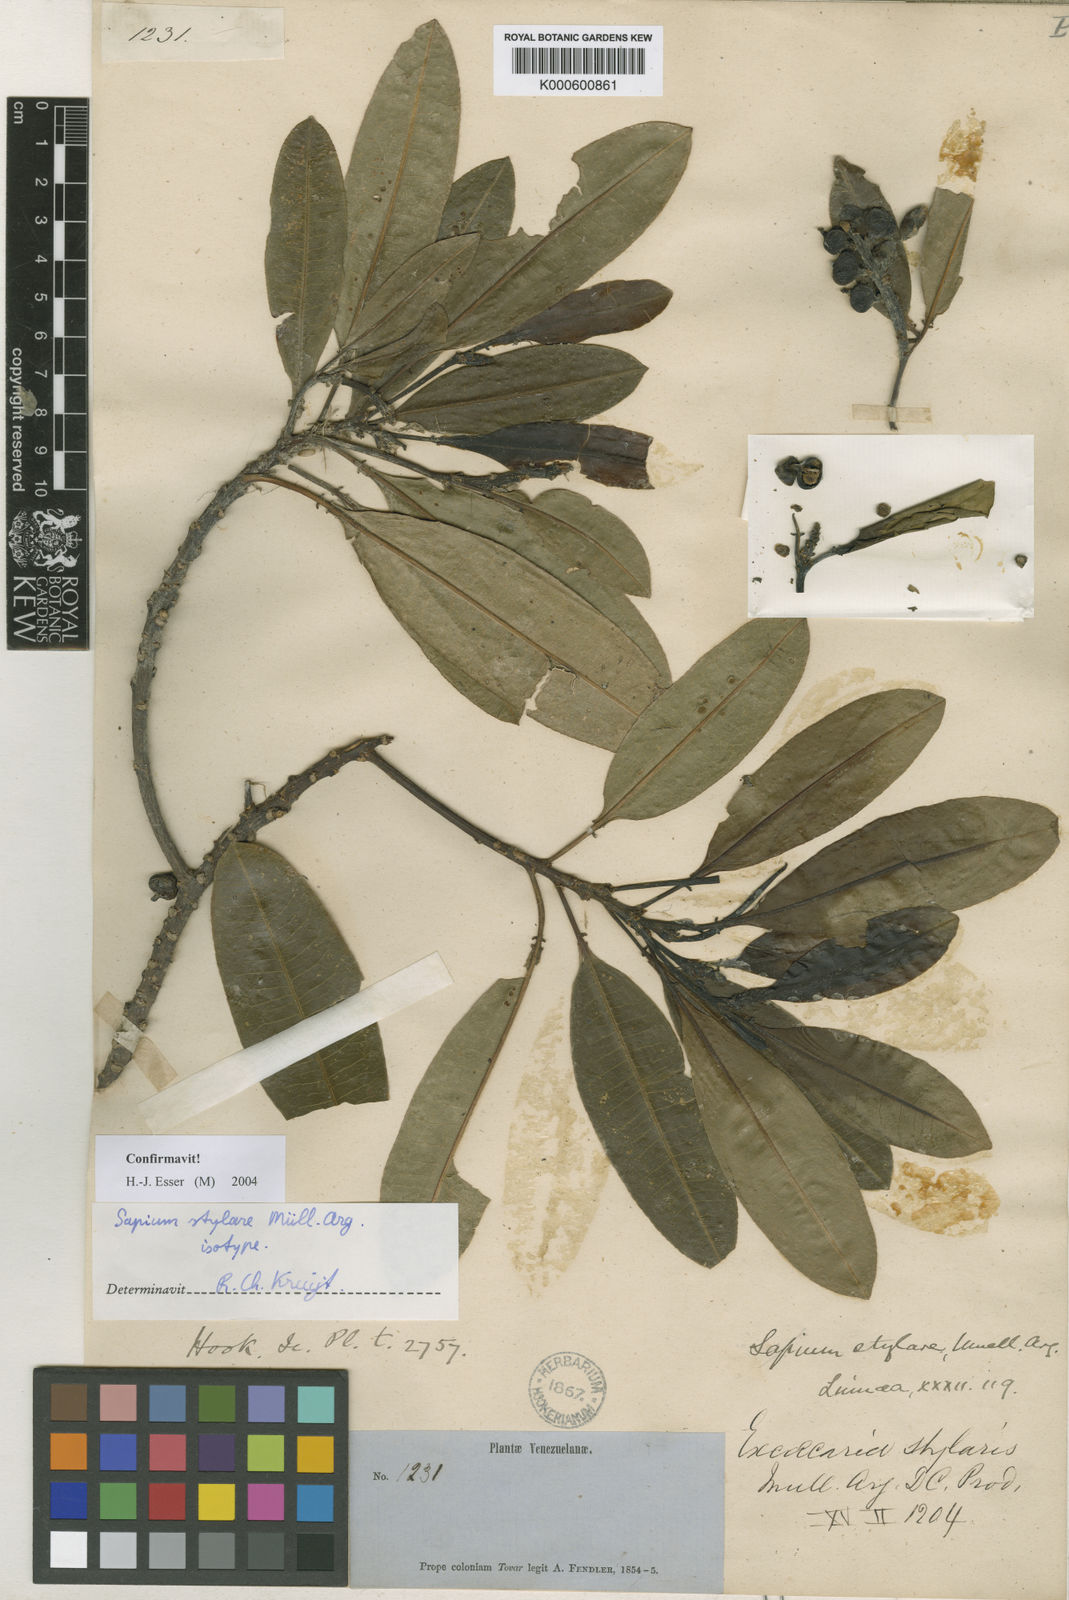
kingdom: Plantae
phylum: Tracheophyta
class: Magnoliopsida
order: Malpighiales
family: Euphorbiaceae
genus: Sapium
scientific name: Sapium
